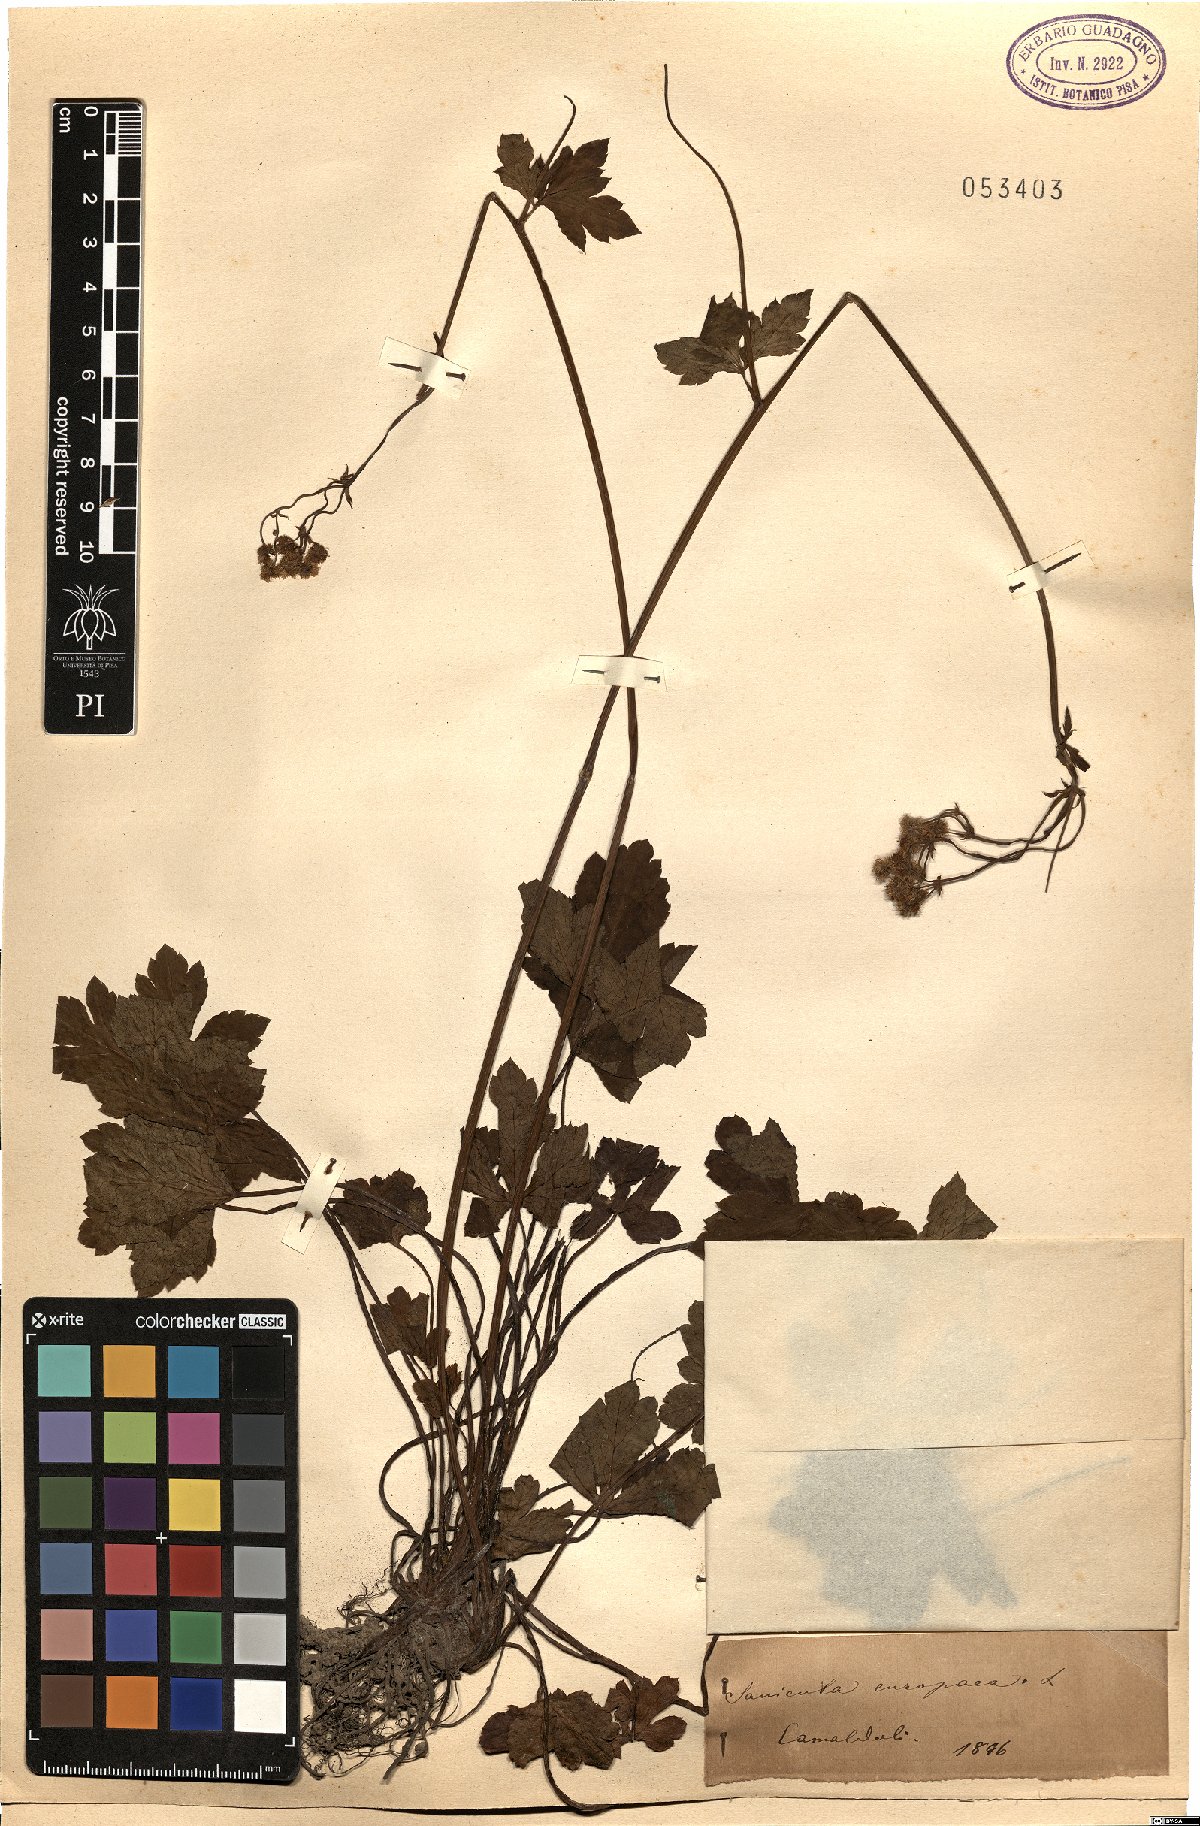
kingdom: Plantae
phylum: Tracheophyta
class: Magnoliopsida
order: Apiales
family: Apiaceae
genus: Sanicula
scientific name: Sanicula europaea
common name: Sanicle
